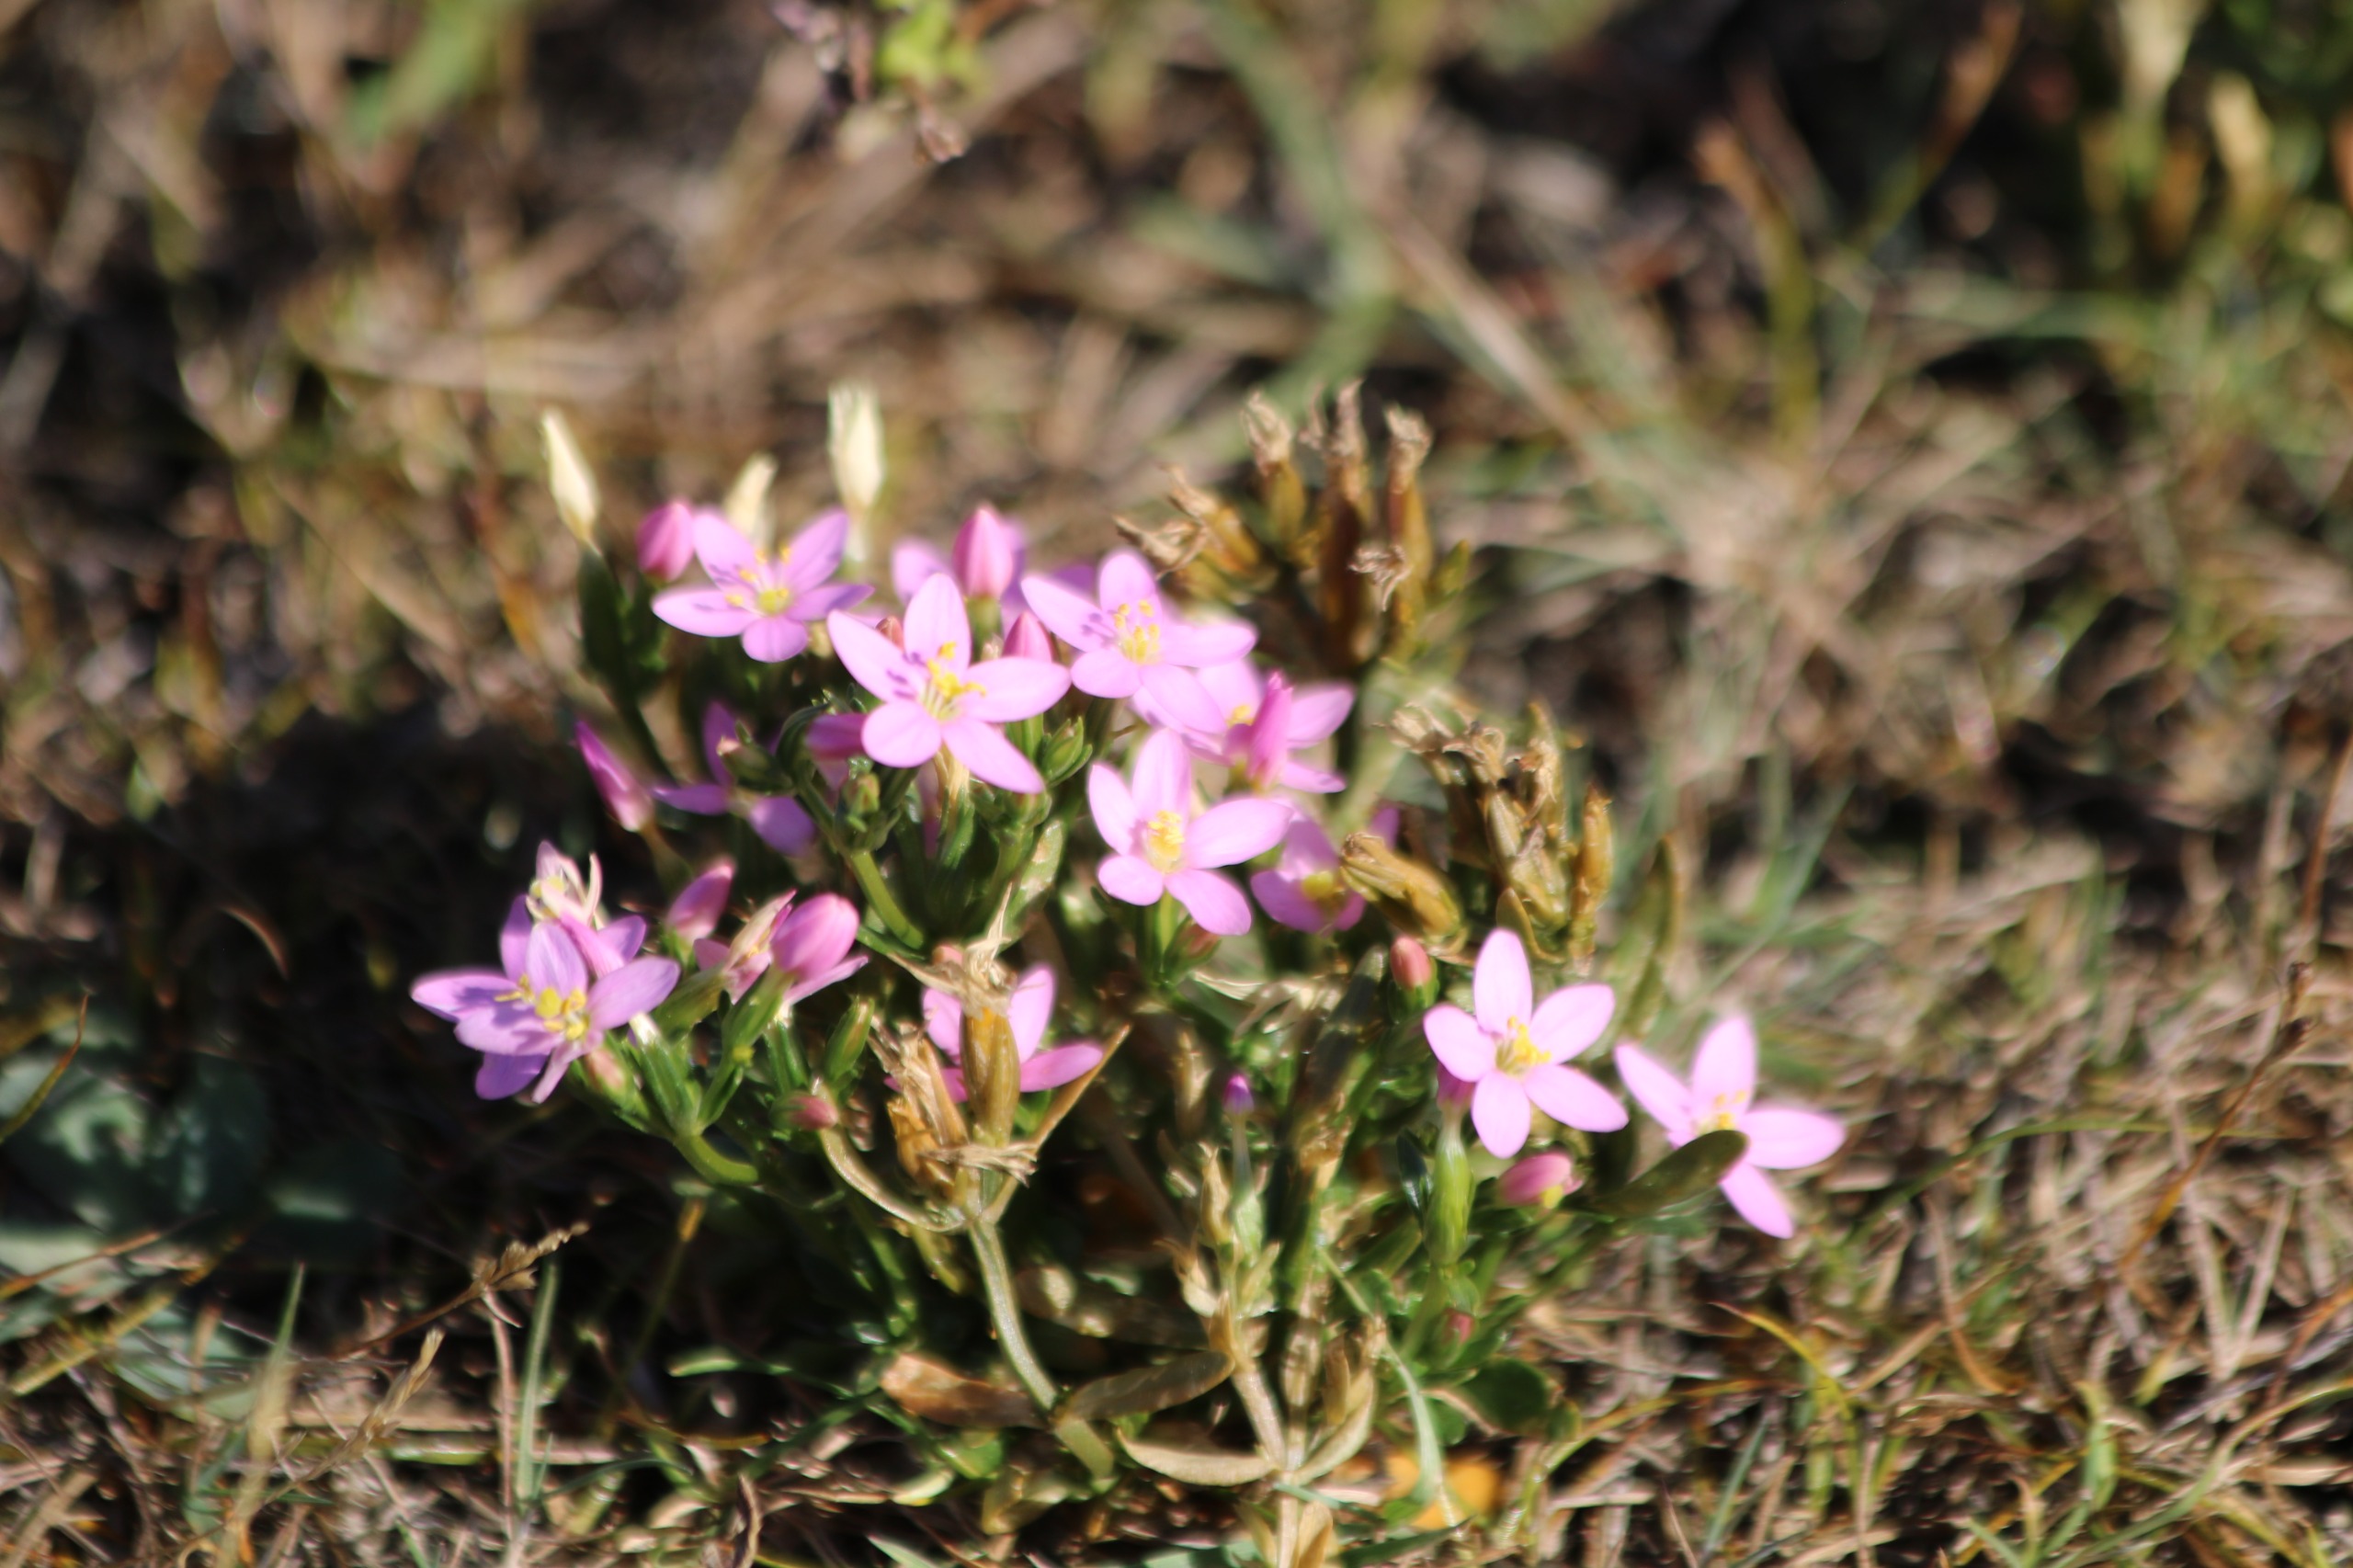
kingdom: Plantae
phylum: Tracheophyta
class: Magnoliopsida
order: Gentianales
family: Gentianaceae
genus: Centaurium
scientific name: Centaurium
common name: Tusindgyldenslægten
